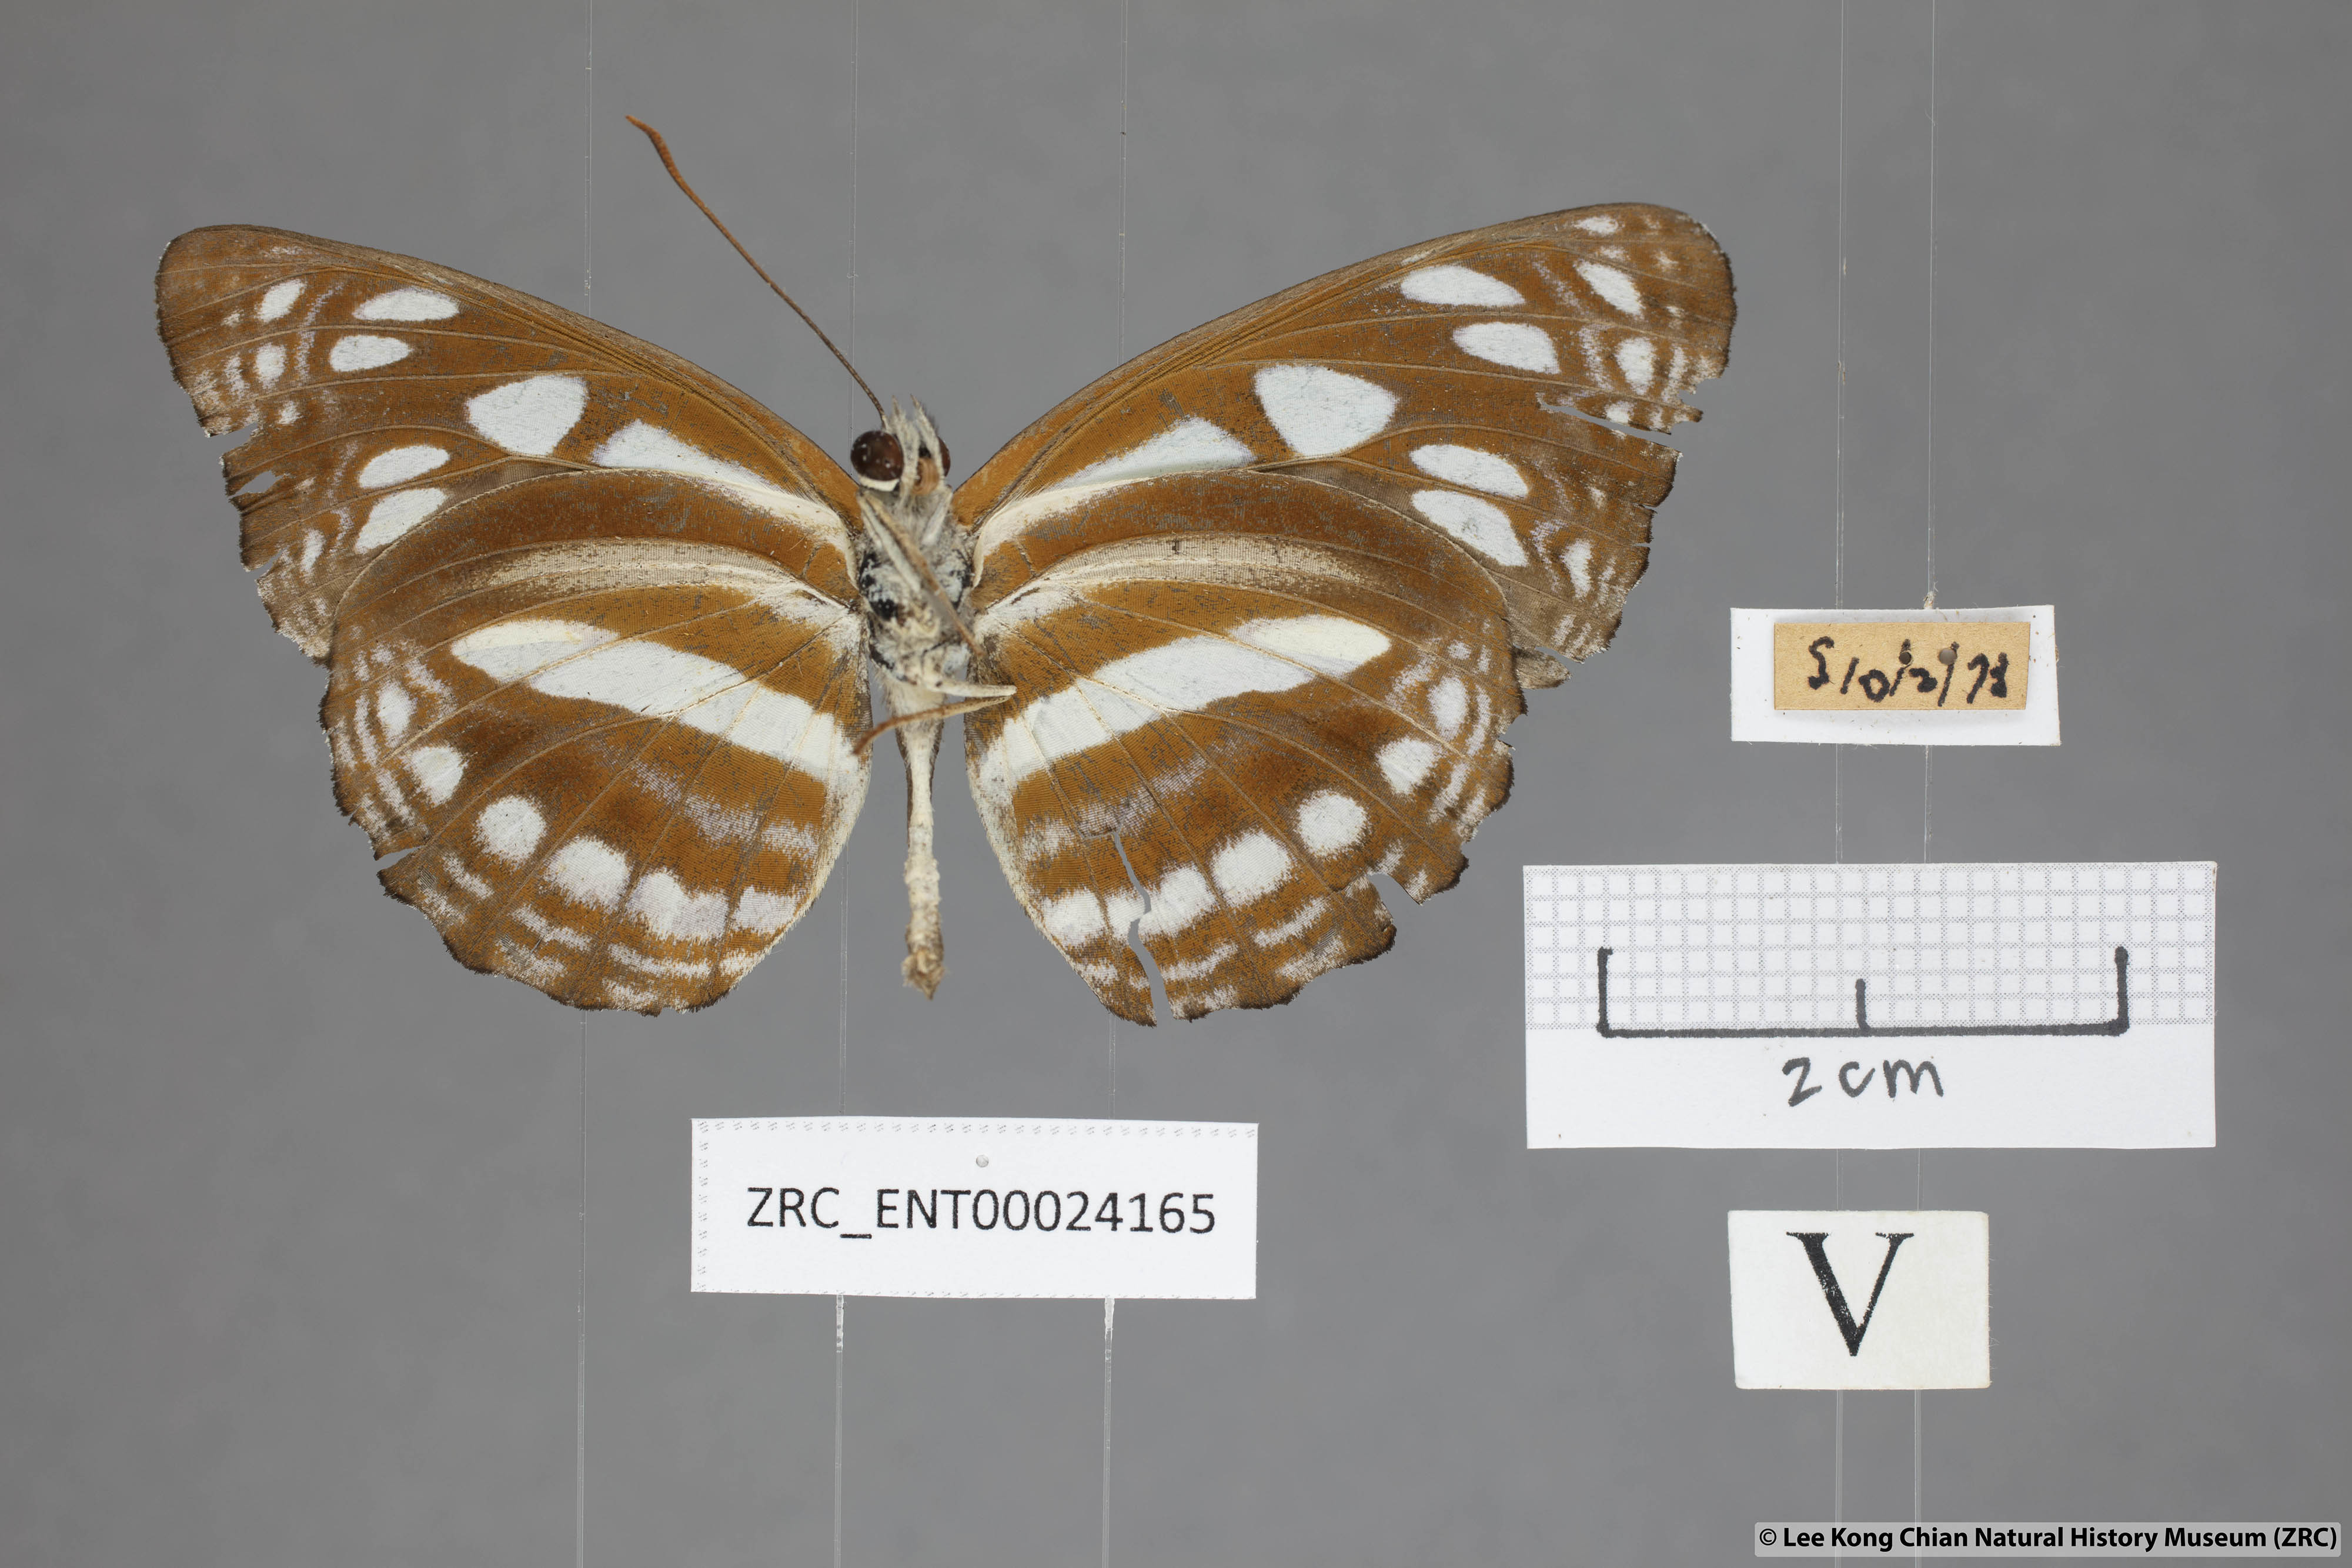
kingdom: Animalia
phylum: Arthropoda
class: Insecta
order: Lepidoptera
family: Nymphalidae
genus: Phaedyma
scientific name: Phaedyma columella
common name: Short banded sailer
